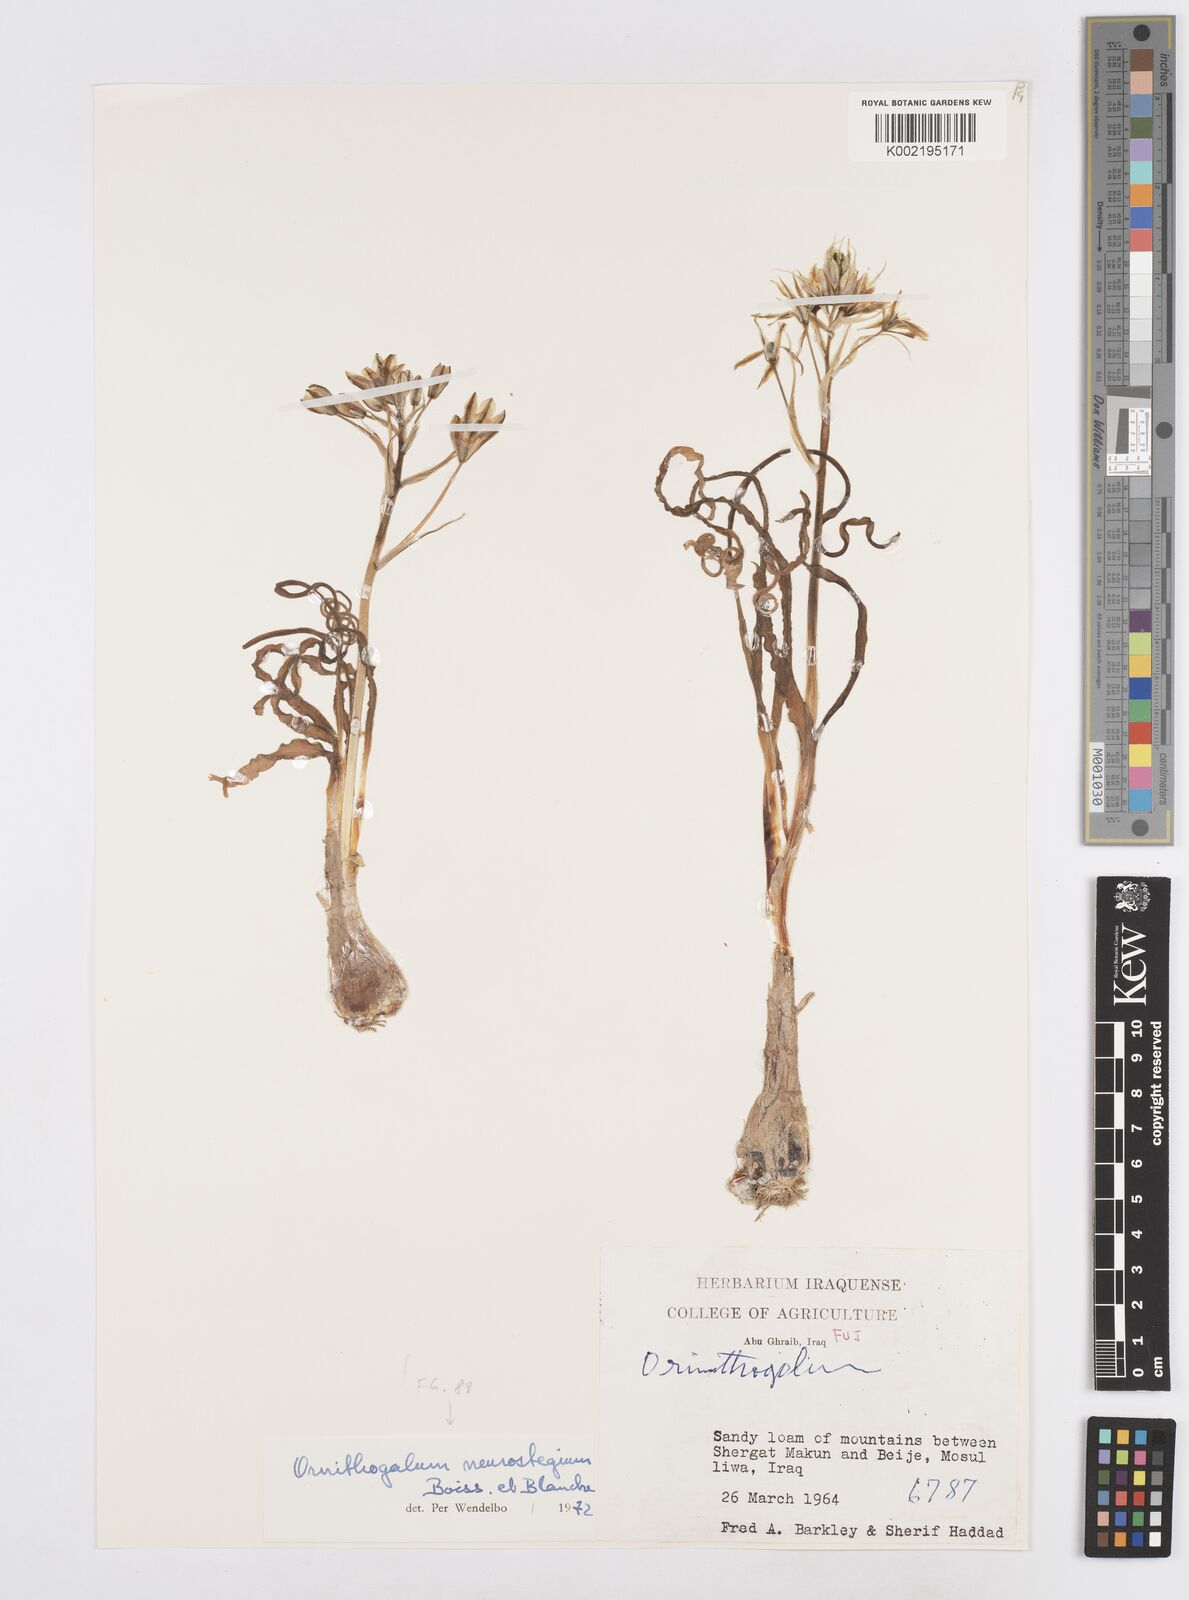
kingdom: Plantae
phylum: Tracheophyta
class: Liliopsida
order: Asparagales
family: Asparagaceae
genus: Ornithogalum
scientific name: Ornithogalum neurostegium
